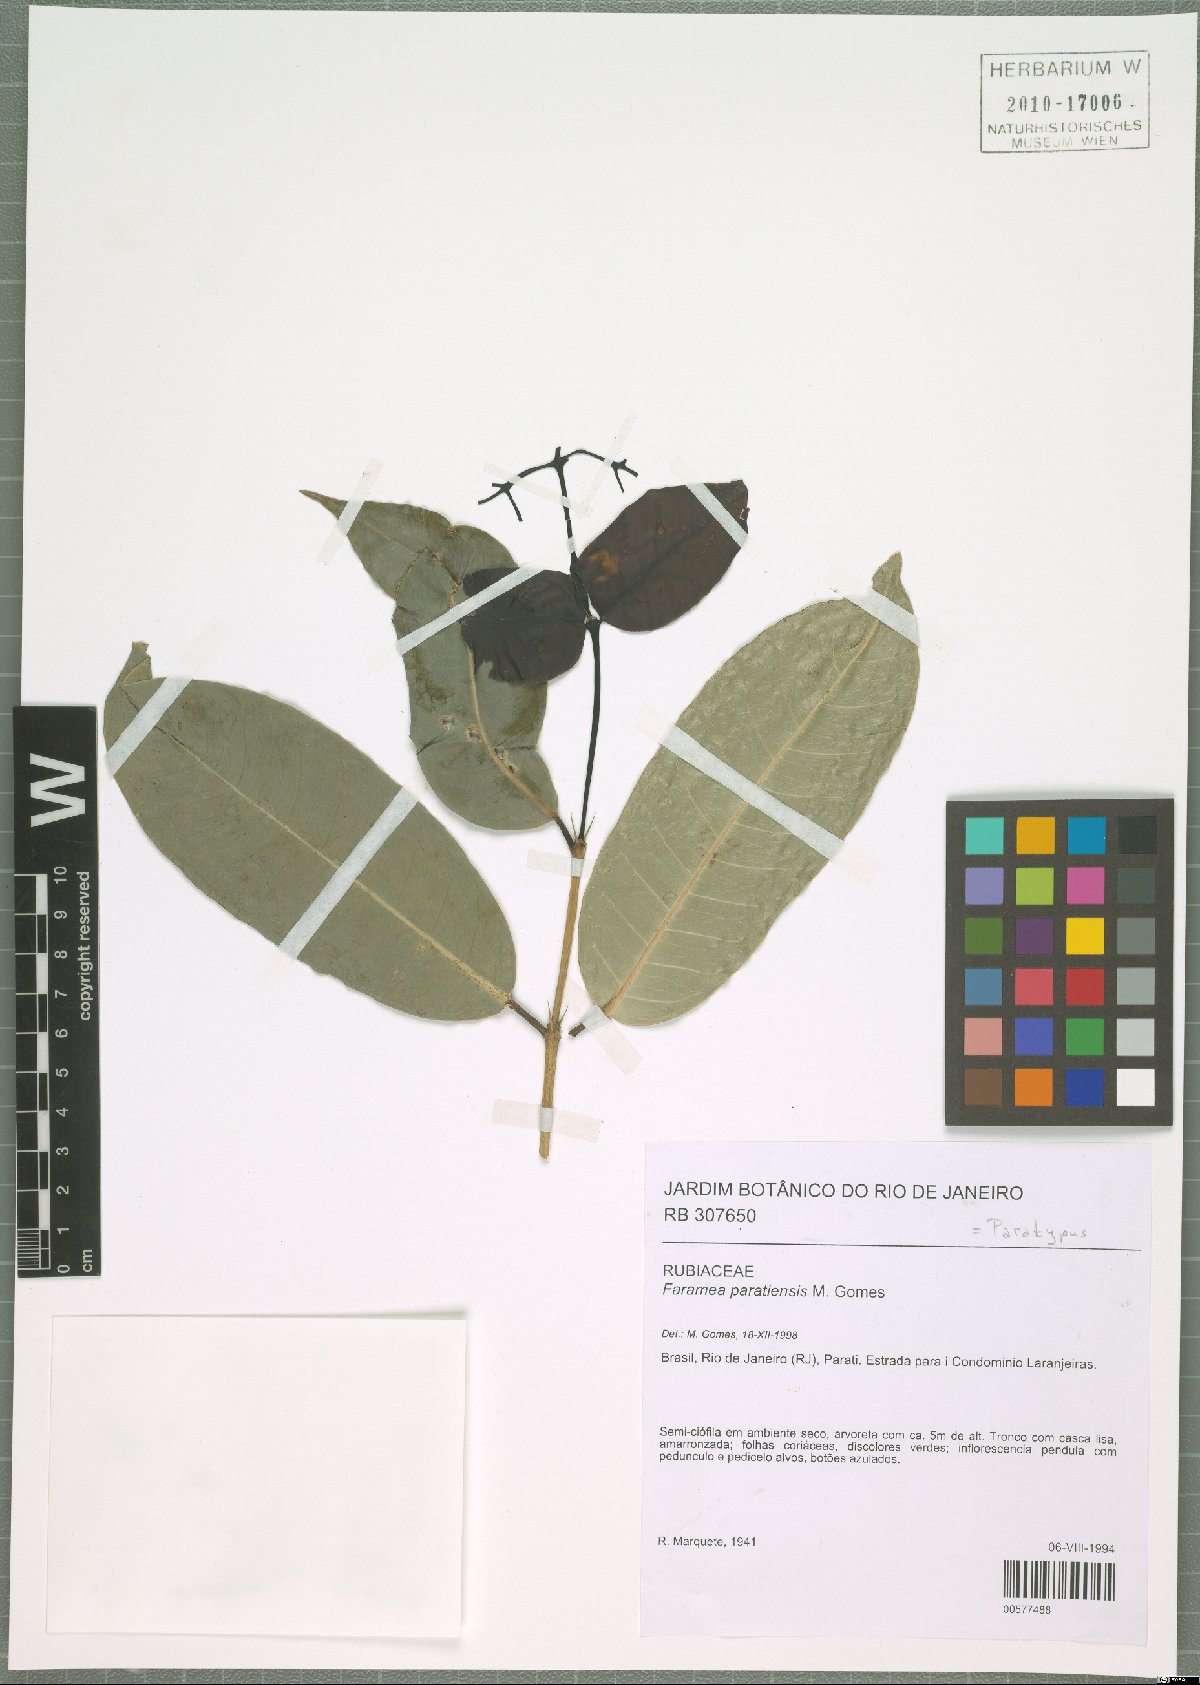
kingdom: Plantae
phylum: Tracheophyta
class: Magnoliopsida
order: Gentianales
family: Rubiaceae
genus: Faramea
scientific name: Faramea paratiensis
